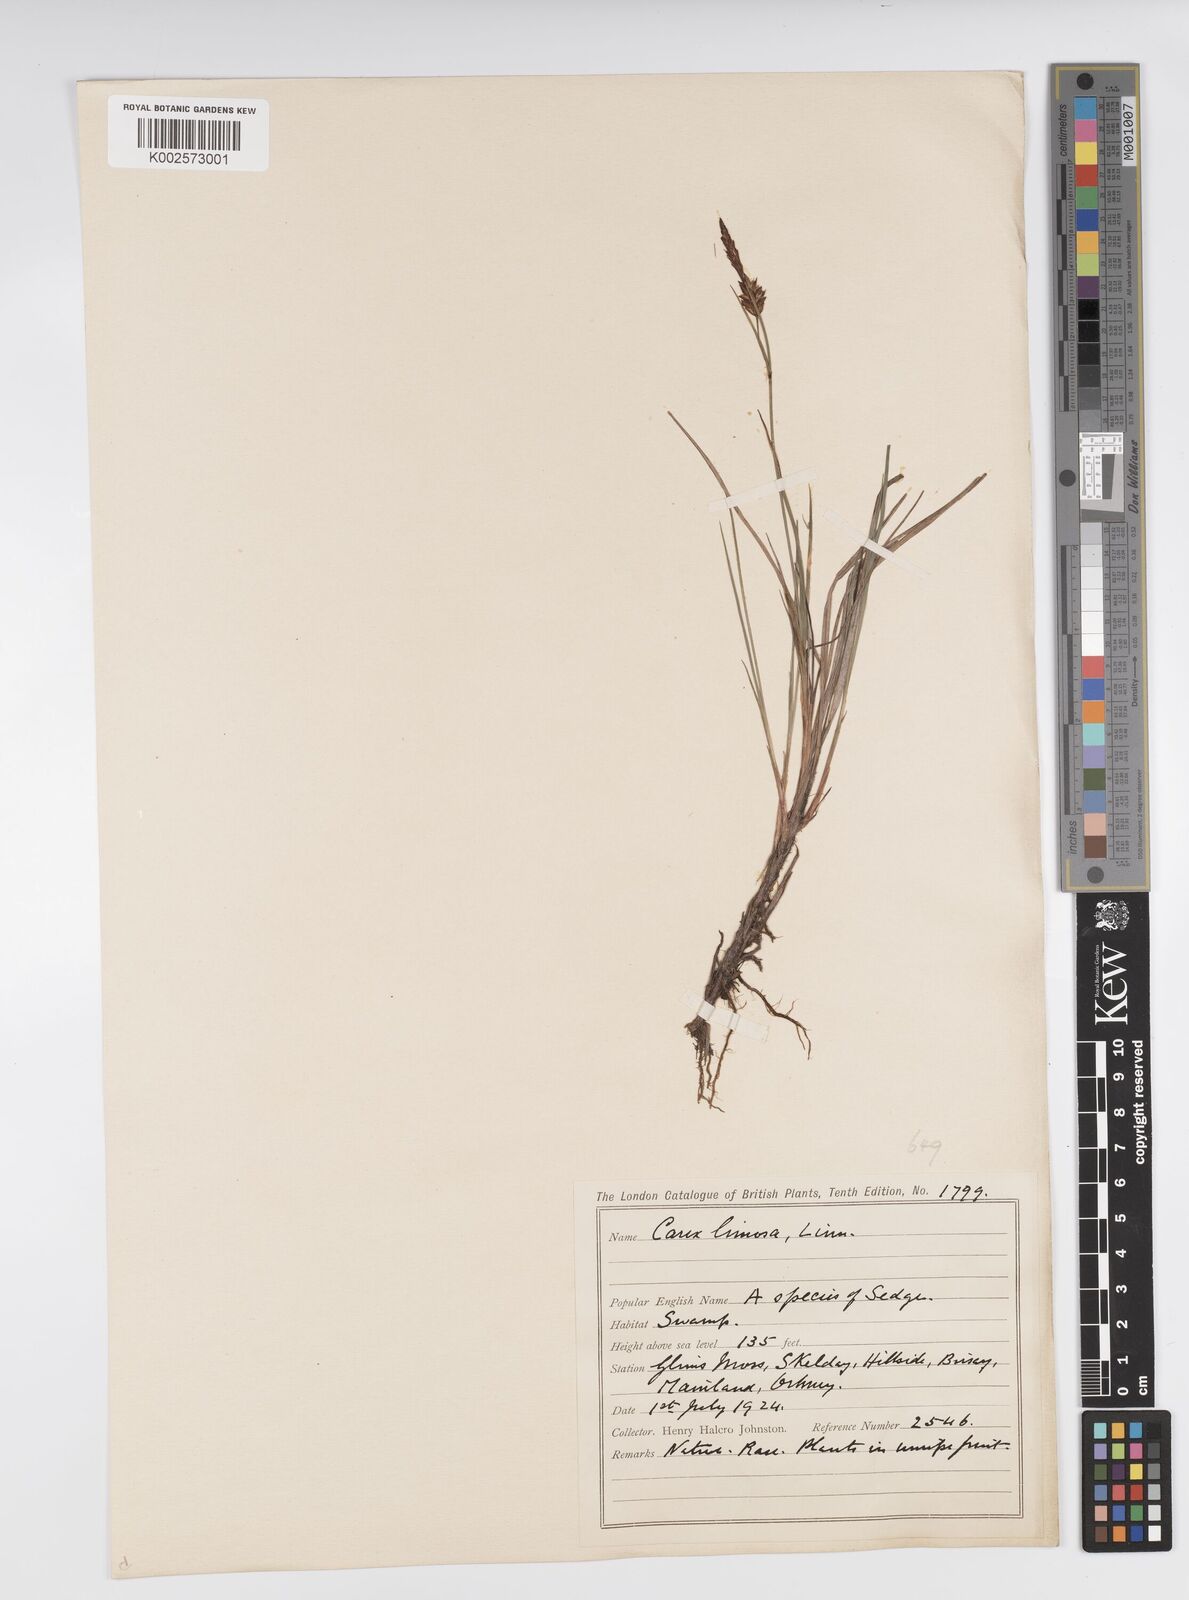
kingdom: Plantae
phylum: Tracheophyta
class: Liliopsida
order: Poales
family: Cyperaceae
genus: Carex
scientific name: Carex limosa
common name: Bog sedge
